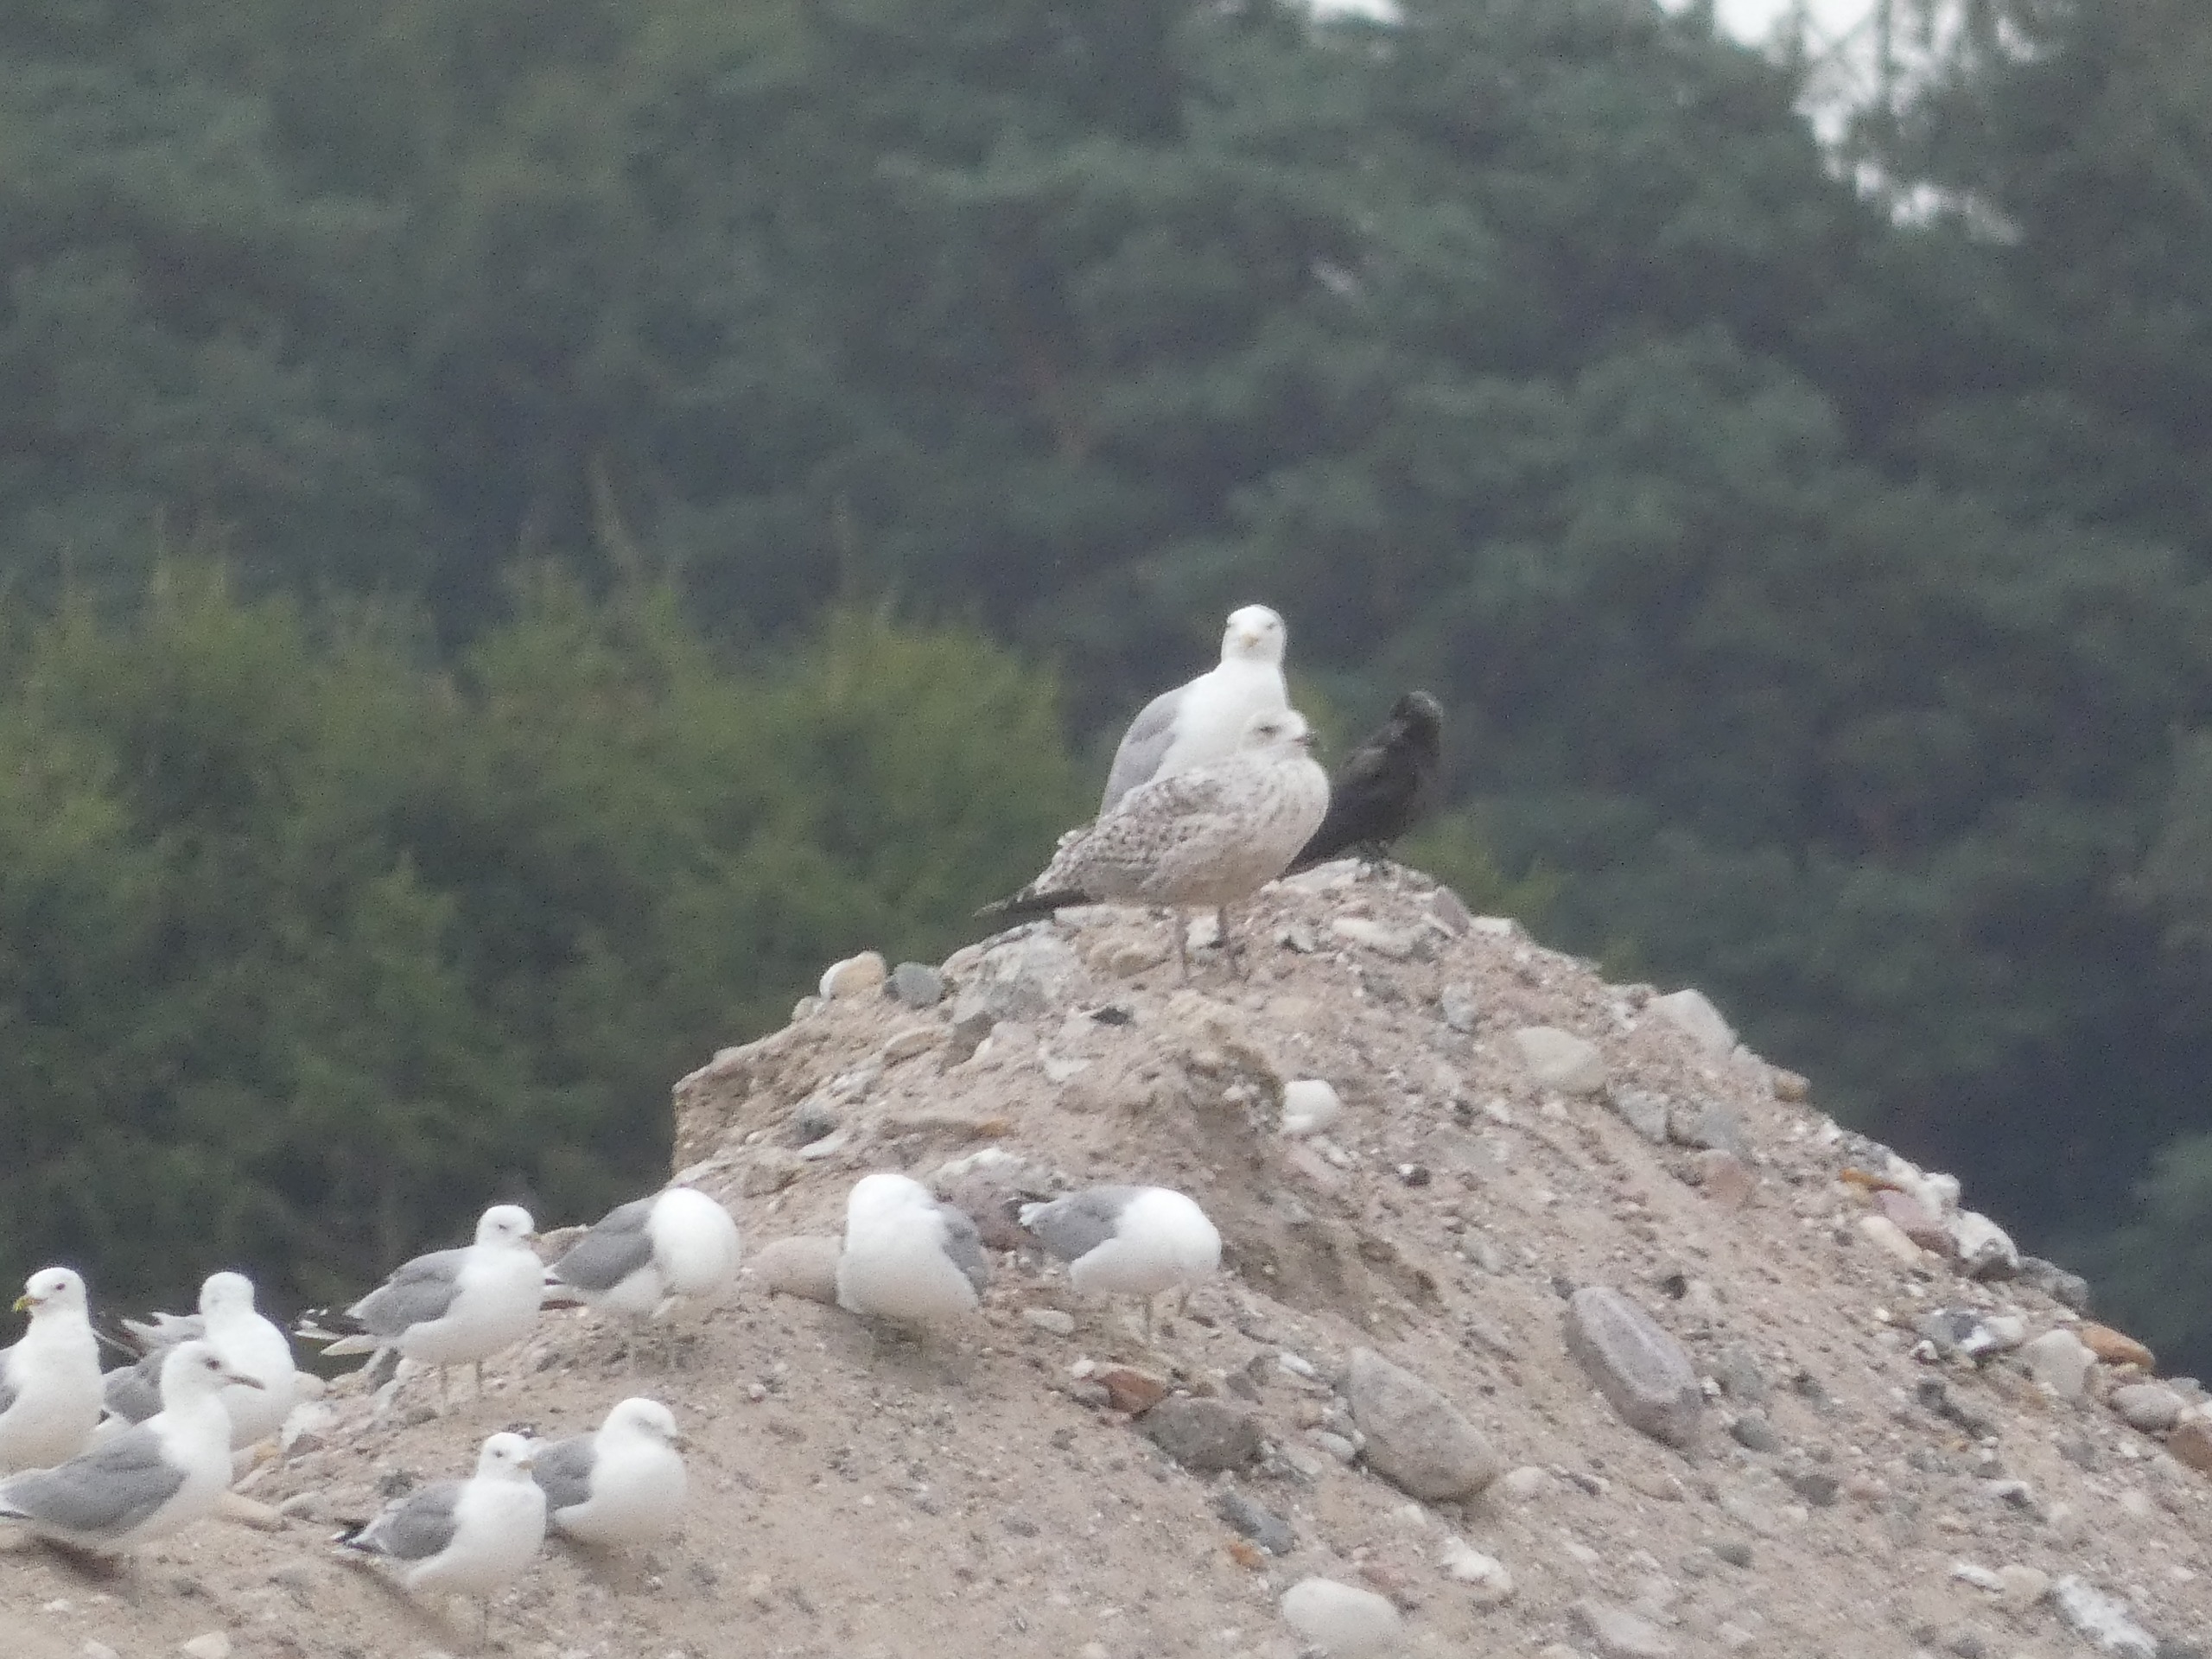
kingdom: Animalia
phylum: Chordata
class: Aves
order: Charadriiformes
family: Laridae
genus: Larus
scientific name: Larus argentatus
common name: Sølvmåge
